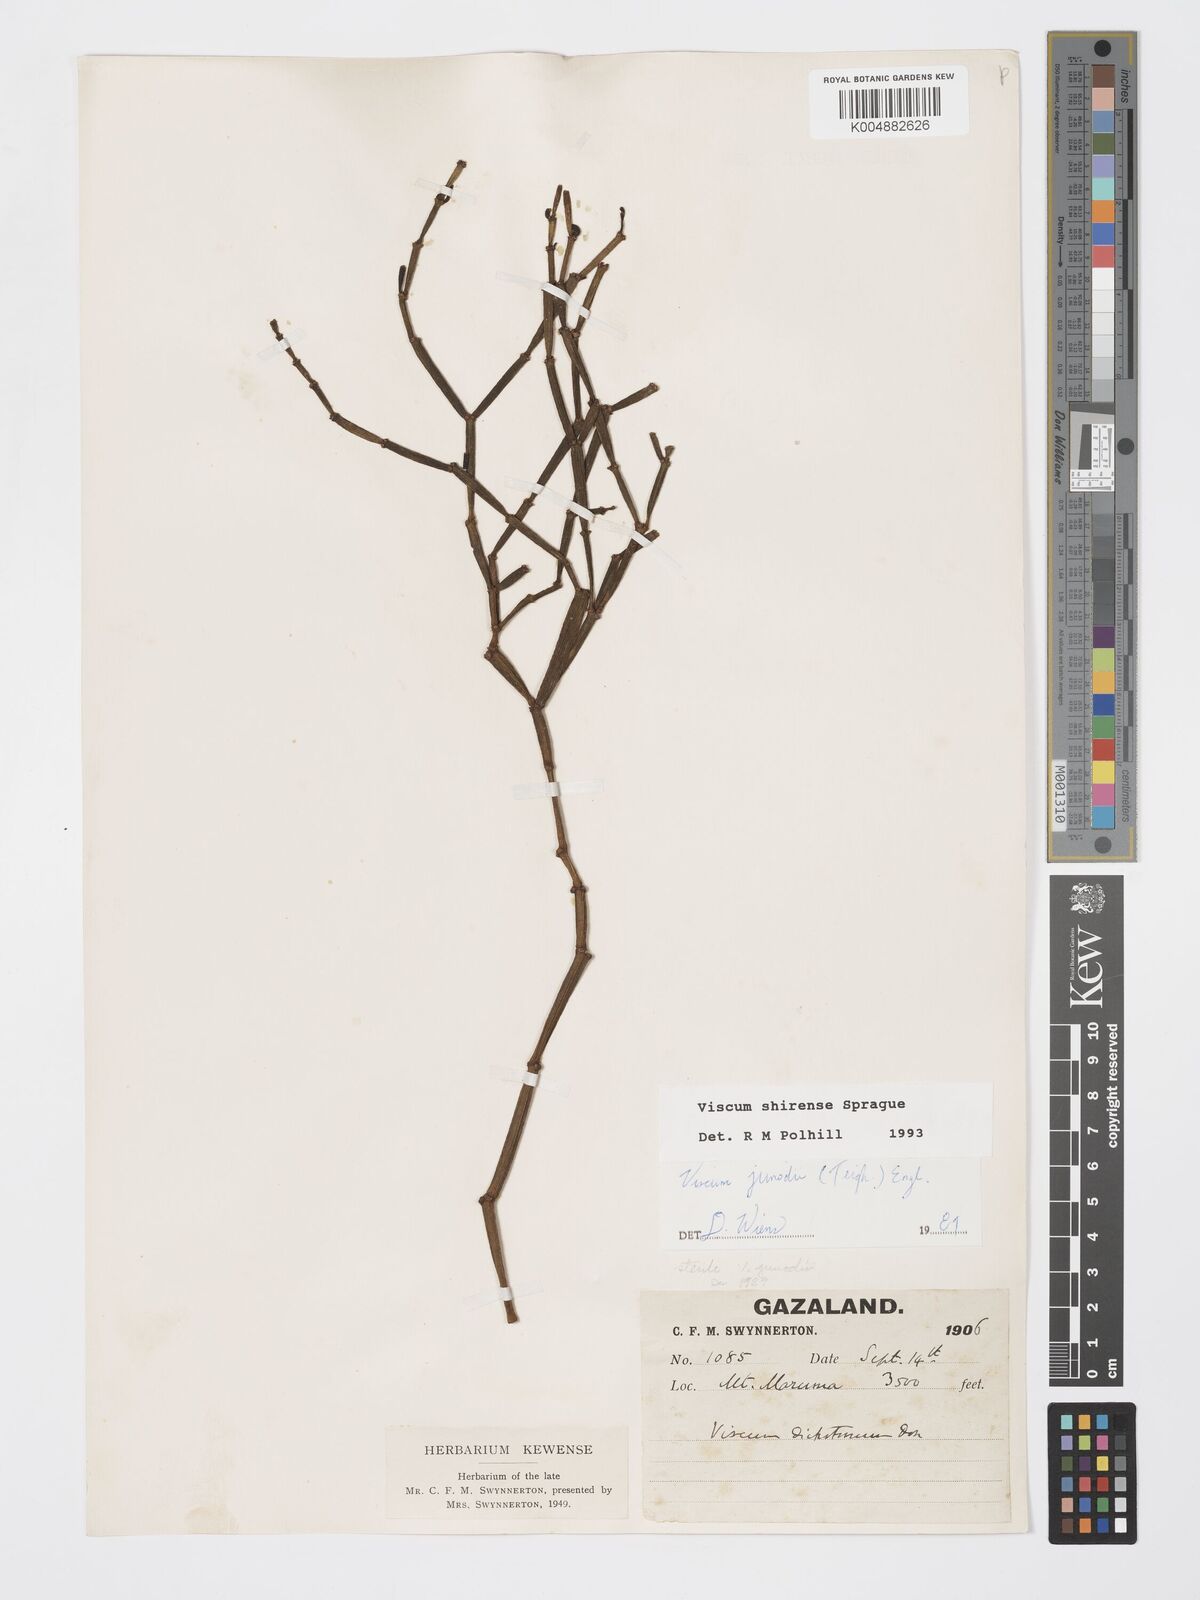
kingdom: Plantae
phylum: Tracheophyta
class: Magnoliopsida
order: Santalales
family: Viscaceae
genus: Viscum
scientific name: Viscum junodii
